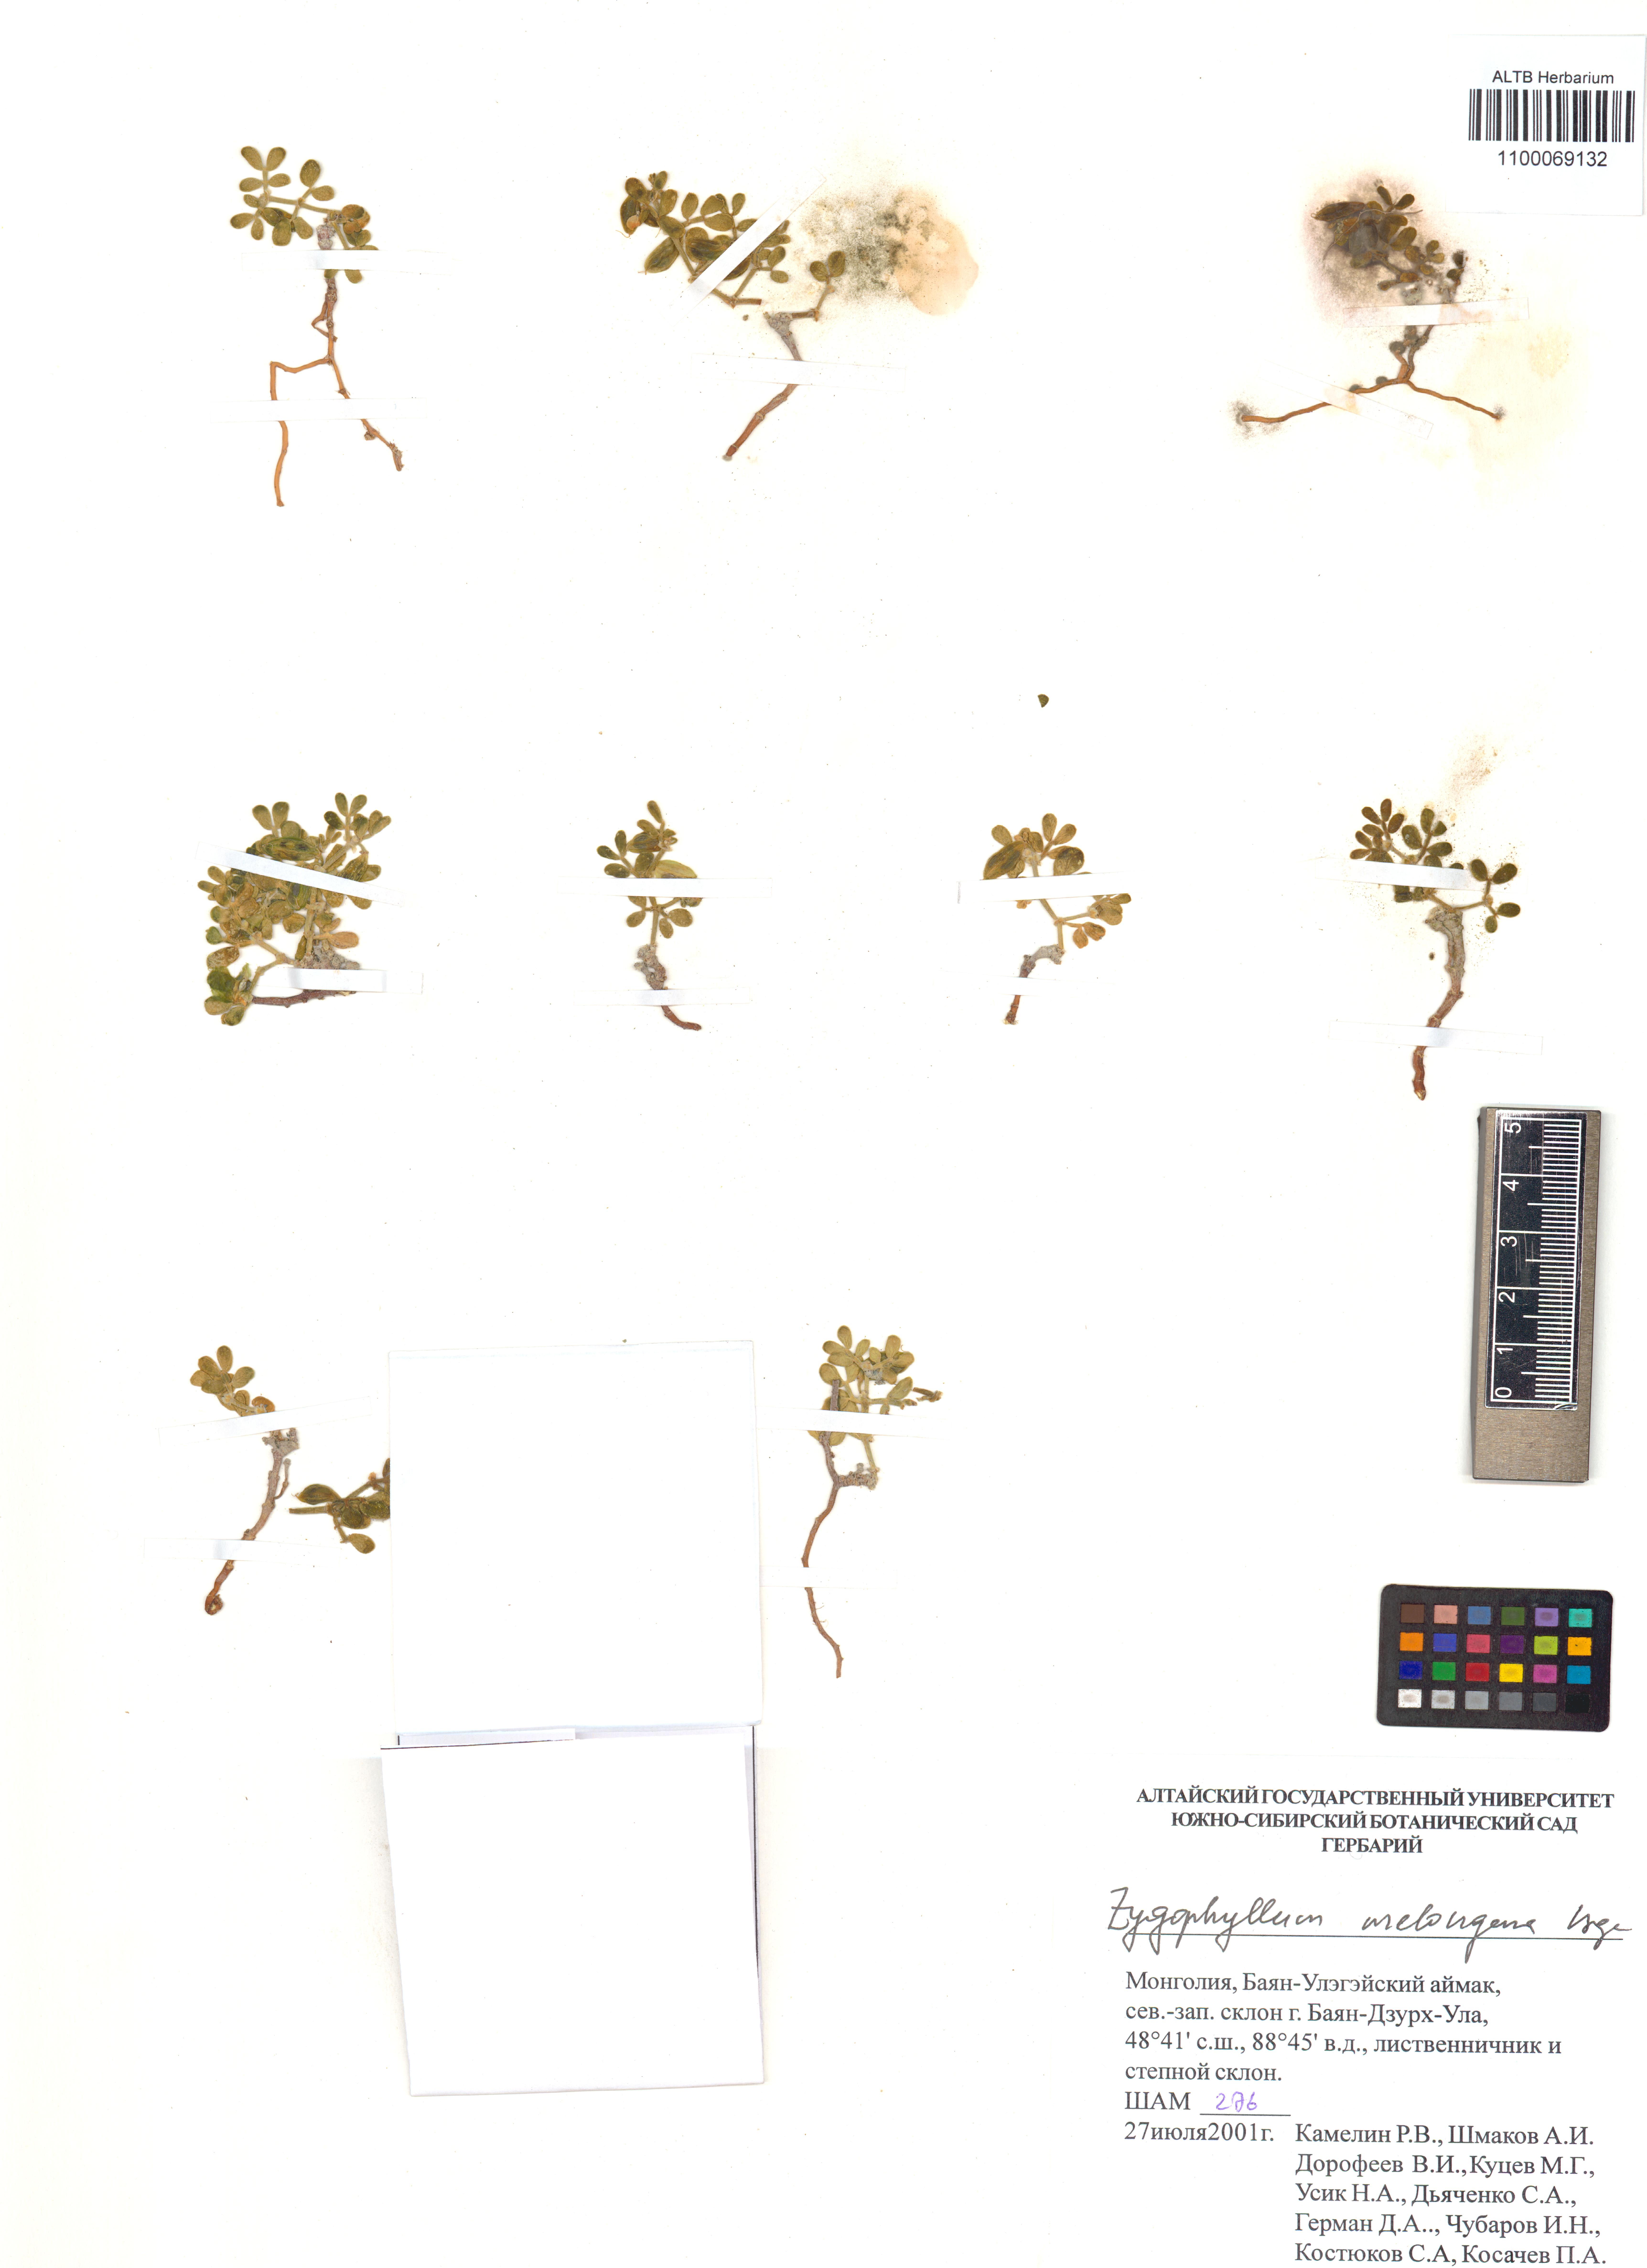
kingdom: Plantae
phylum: Tracheophyta
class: Magnoliopsida
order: Zygophyllales
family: Zygophyllaceae
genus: Zygophyllum
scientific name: Zygophyllum melongena
